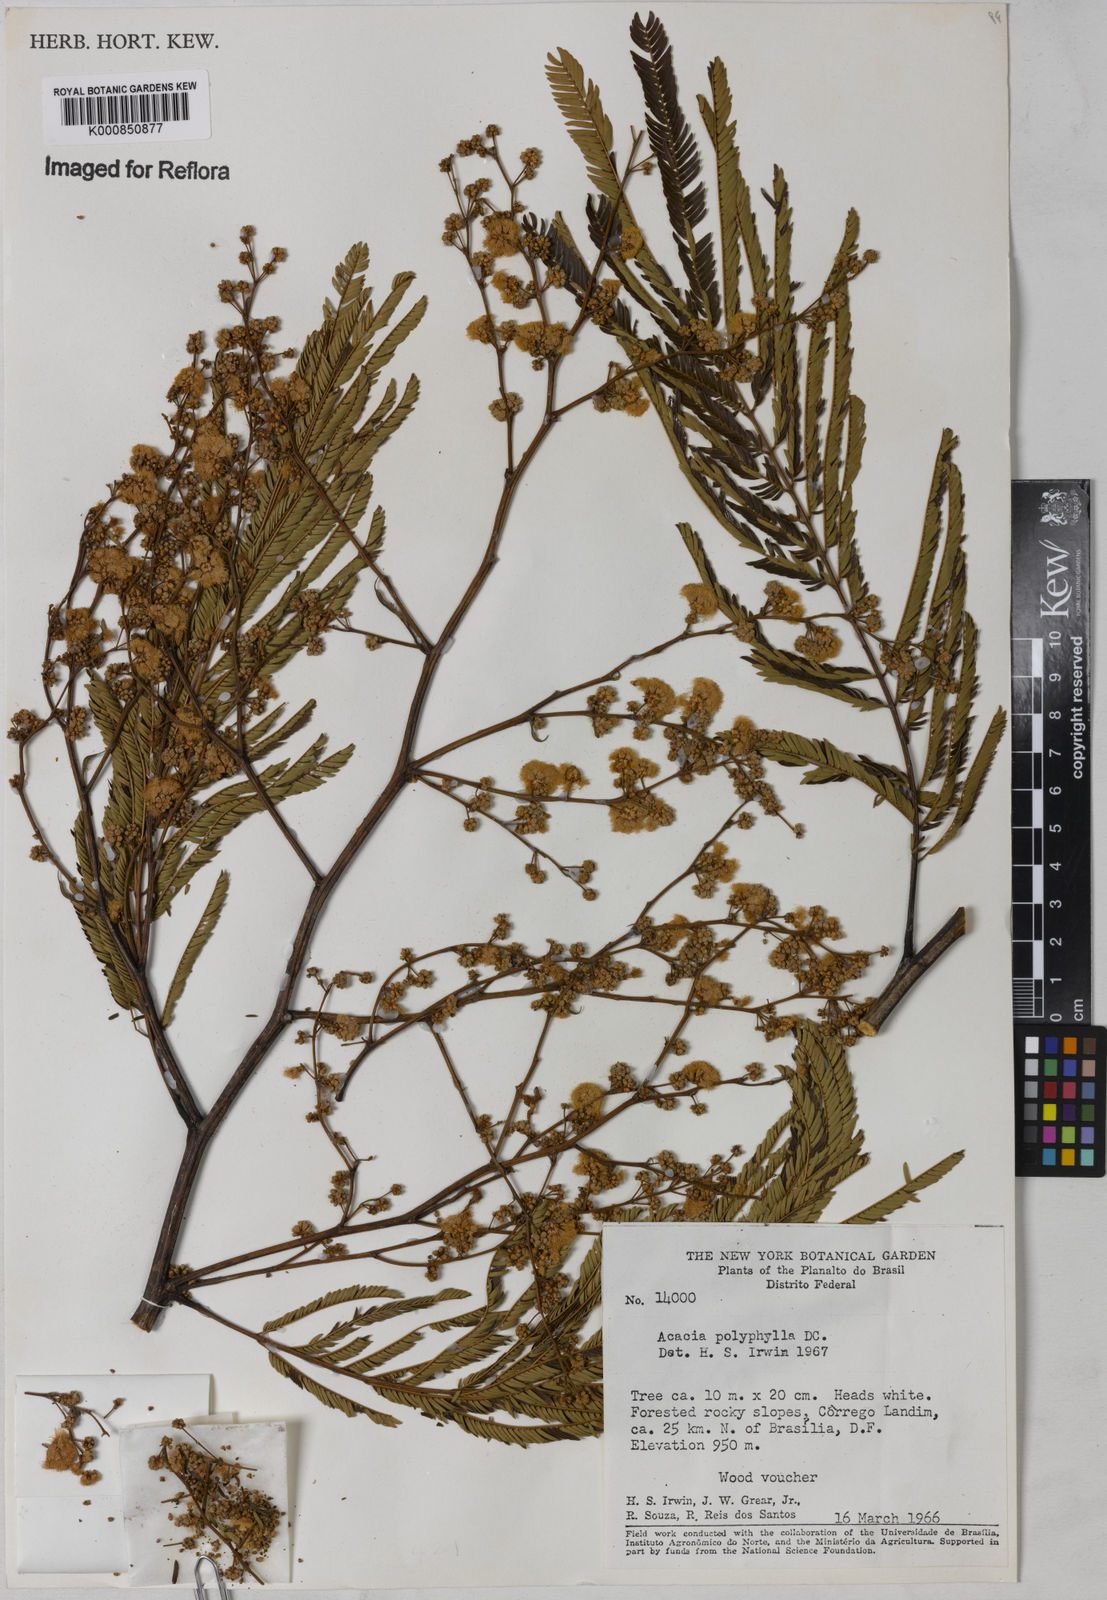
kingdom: Plantae
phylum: Tracheophyta
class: Magnoliopsida
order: Fabales
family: Fabaceae
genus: Senegalia
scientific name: Senegalia polyphylla
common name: White-tamarind
